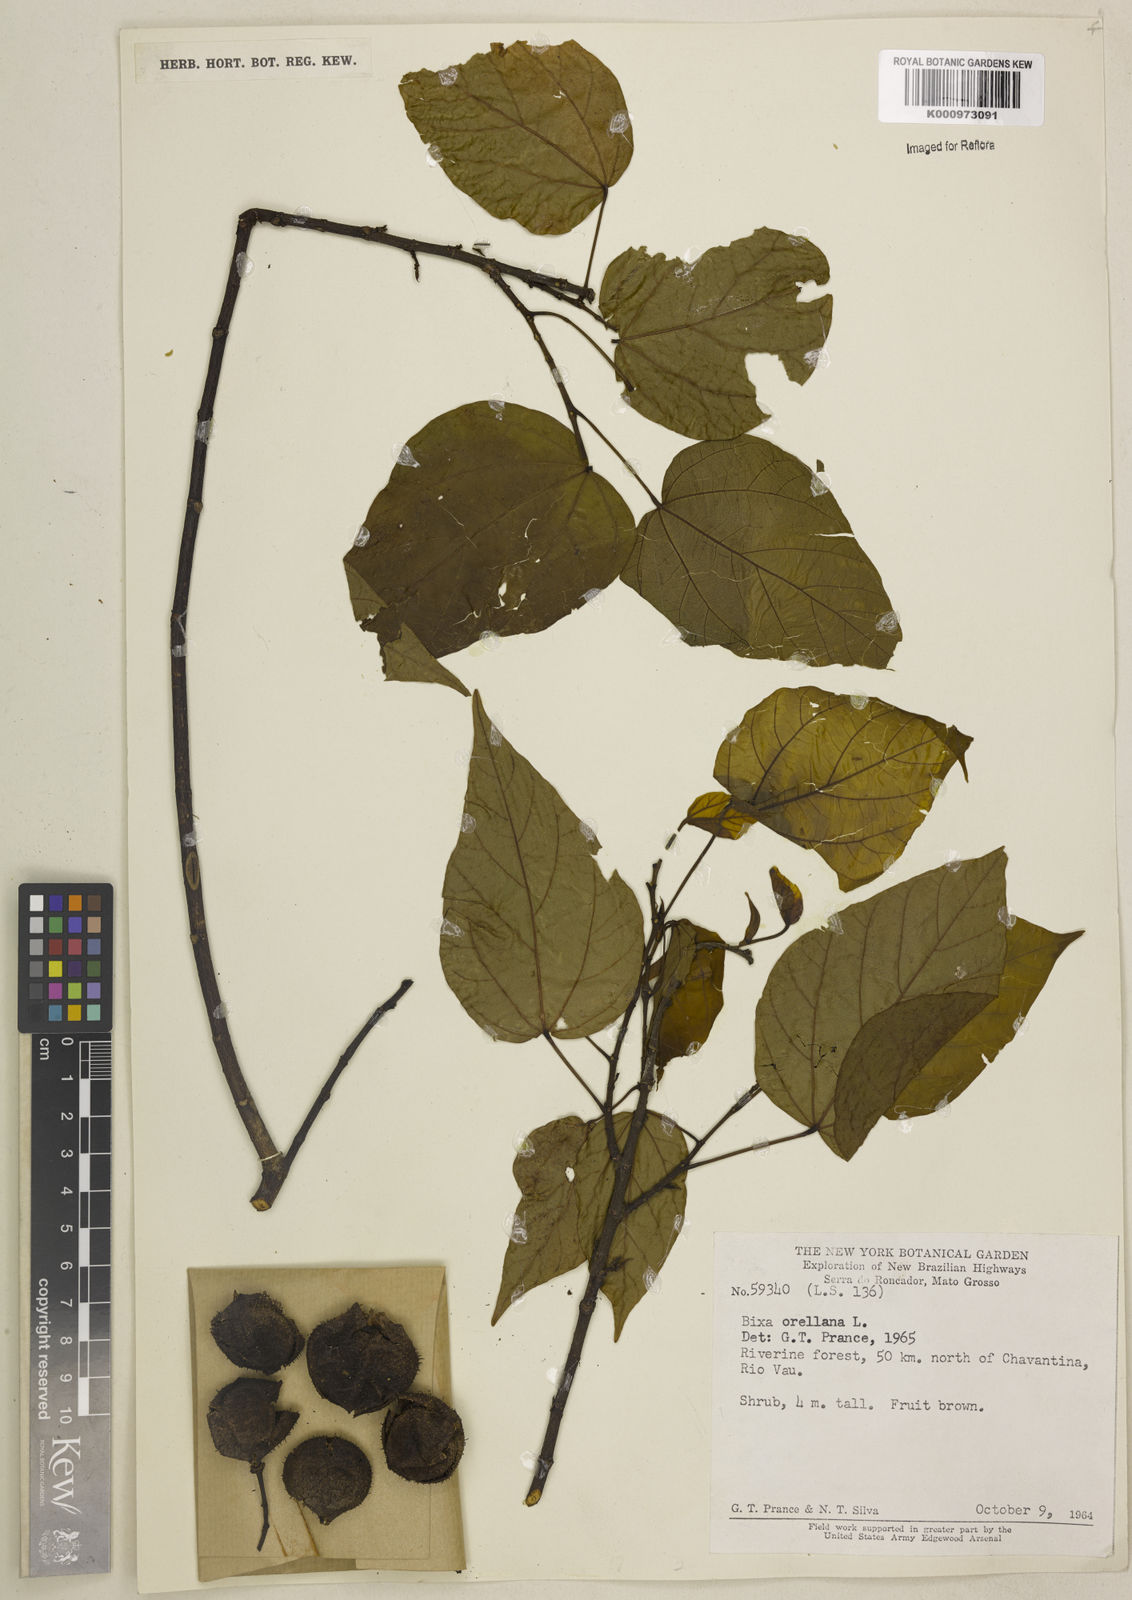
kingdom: Plantae
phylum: Tracheophyta
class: Magnoliopsida
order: Malvales
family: Bixaceae
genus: Bixa
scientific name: Bixa excelsa
